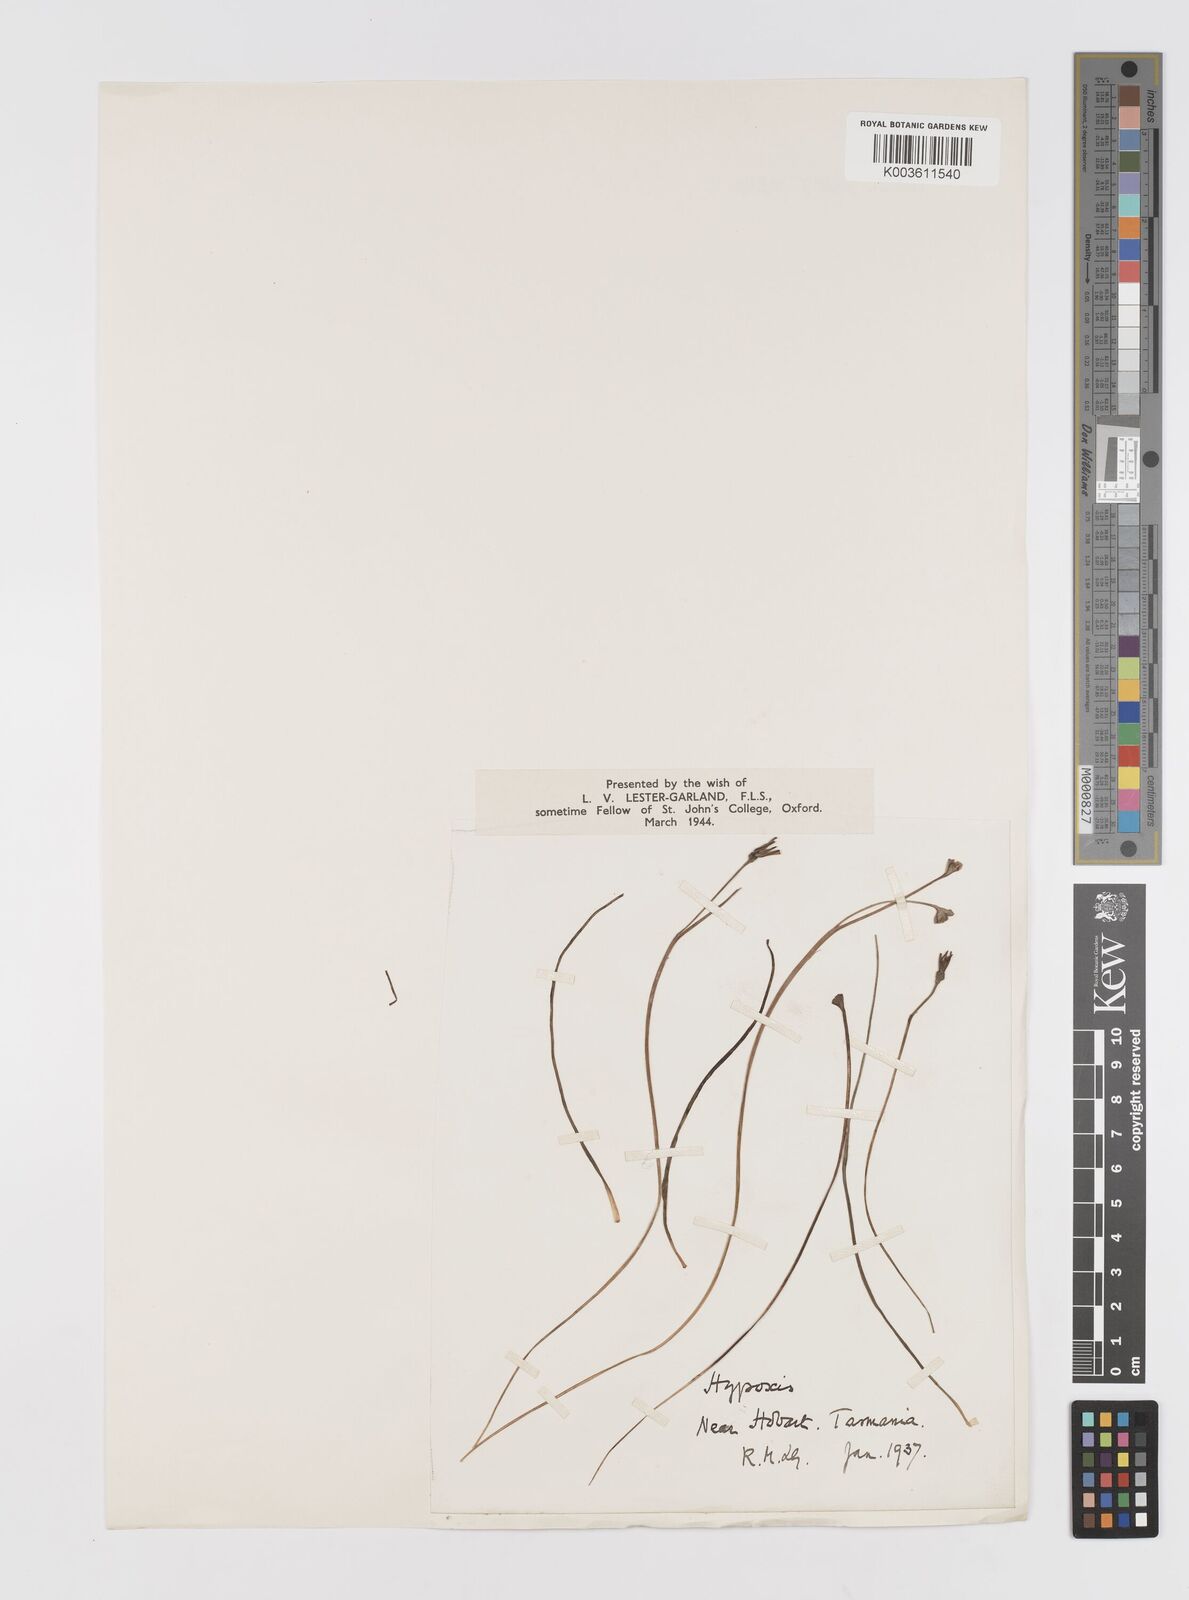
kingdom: Plantae
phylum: Tracheophyta
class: Liliopsida
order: Asparagales
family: Hypoxidaceae
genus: Hypoxis
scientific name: Hypoxis
